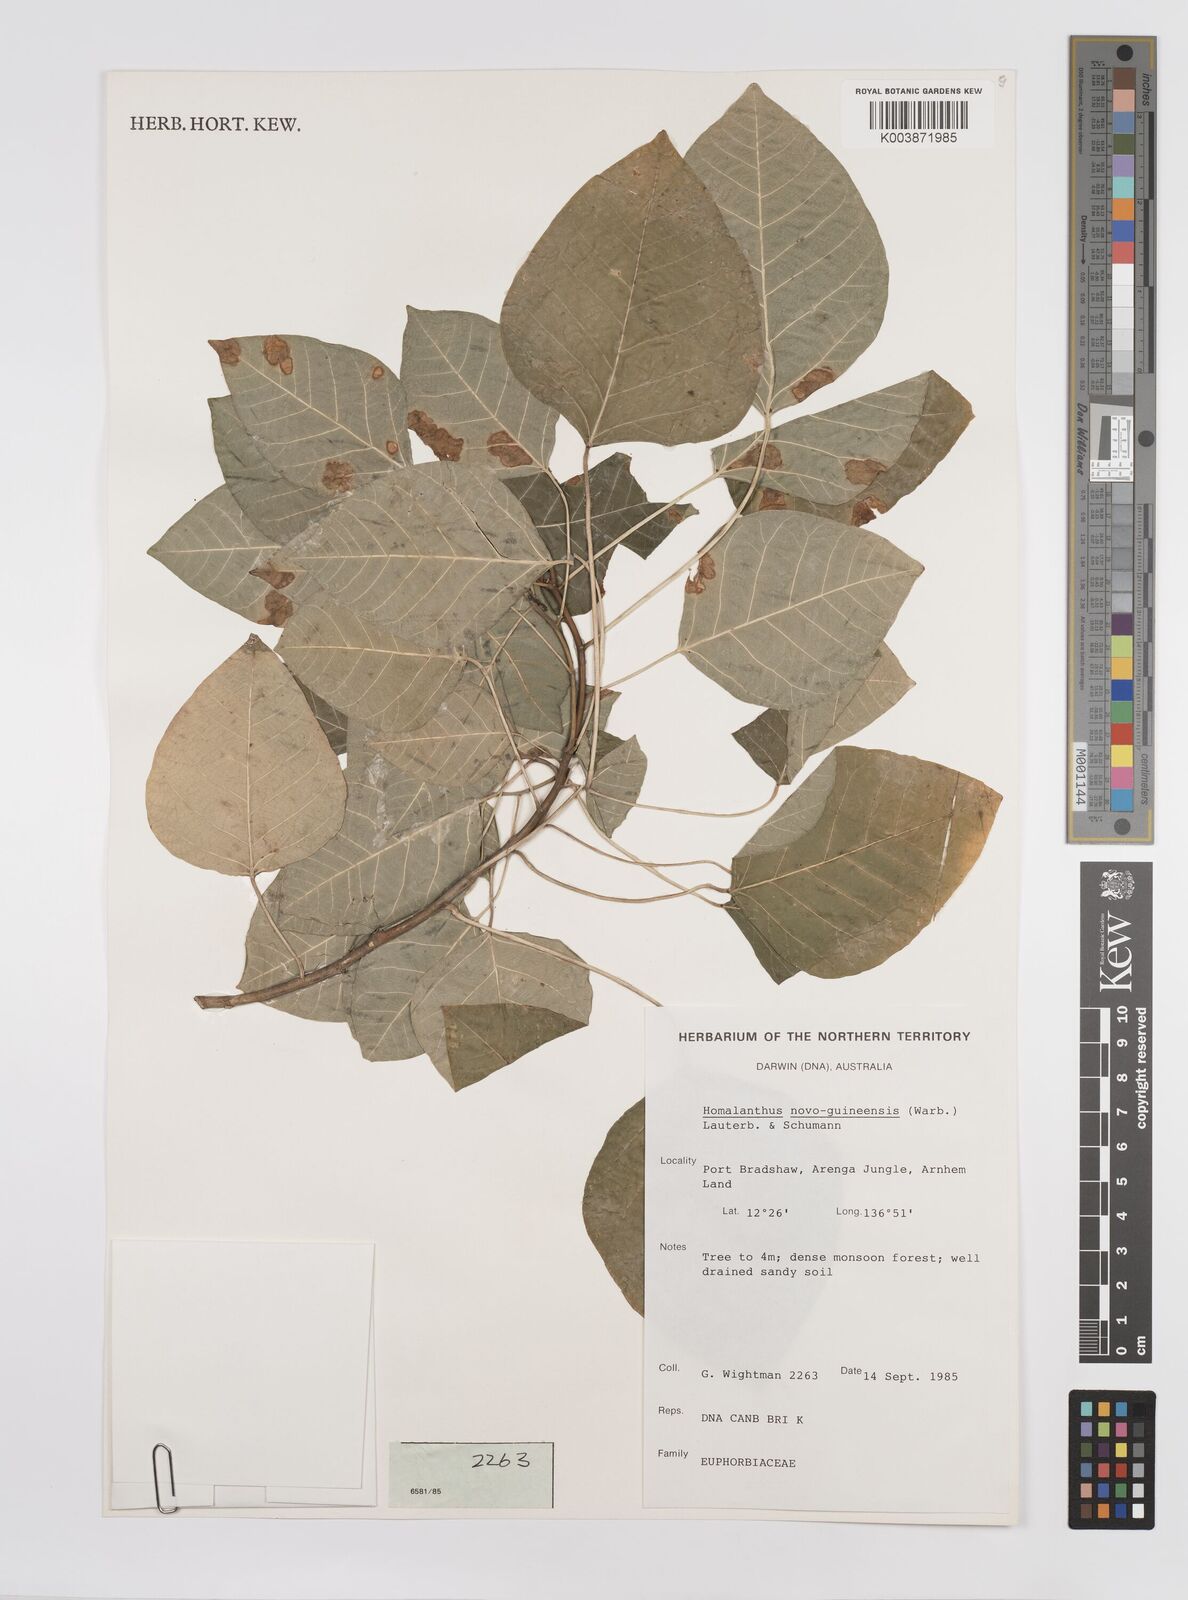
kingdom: Plantae
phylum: Tracheophyta
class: Magnoliopsida
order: Malpighiales
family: Euphorbiaceae
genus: Homalanthus
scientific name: Homalanthus novoguineensis
